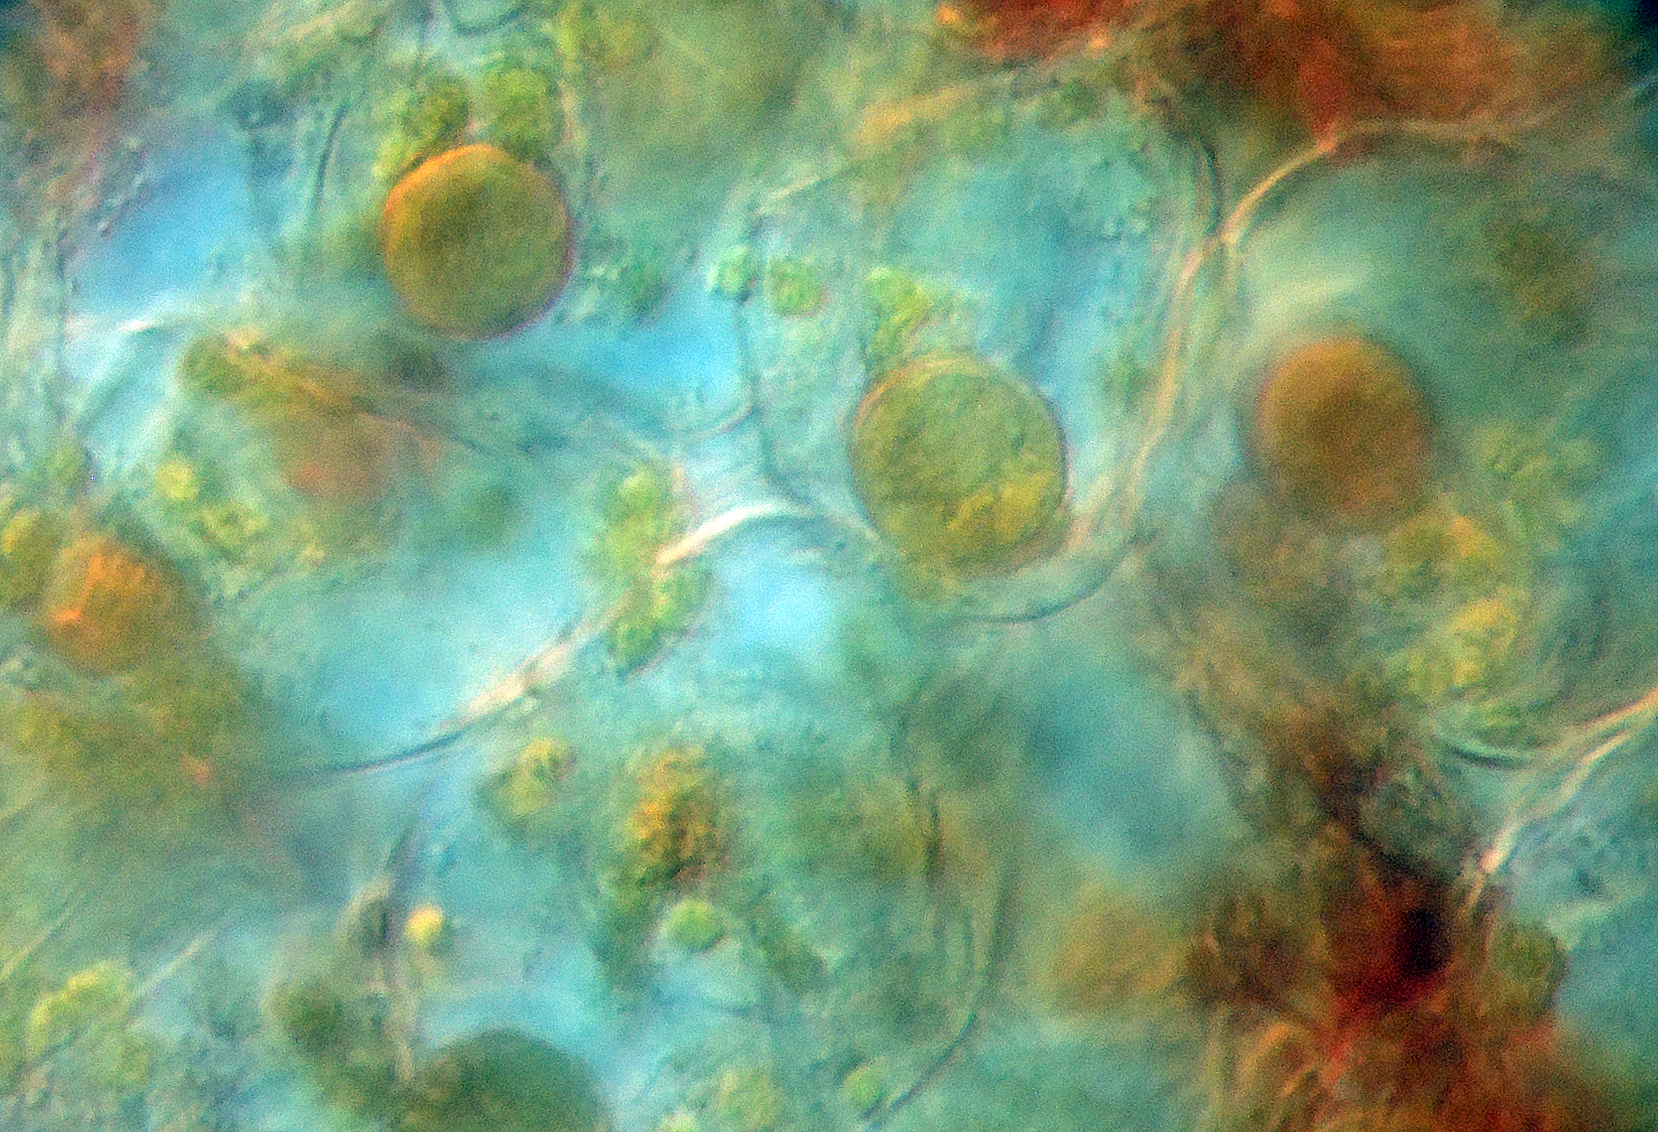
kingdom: Fungi
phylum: Basidiomycota
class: Exobasidiomycetes
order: Entylomatales
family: Entylomataceae
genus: Entyloma
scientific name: Entyloma chelidonii
